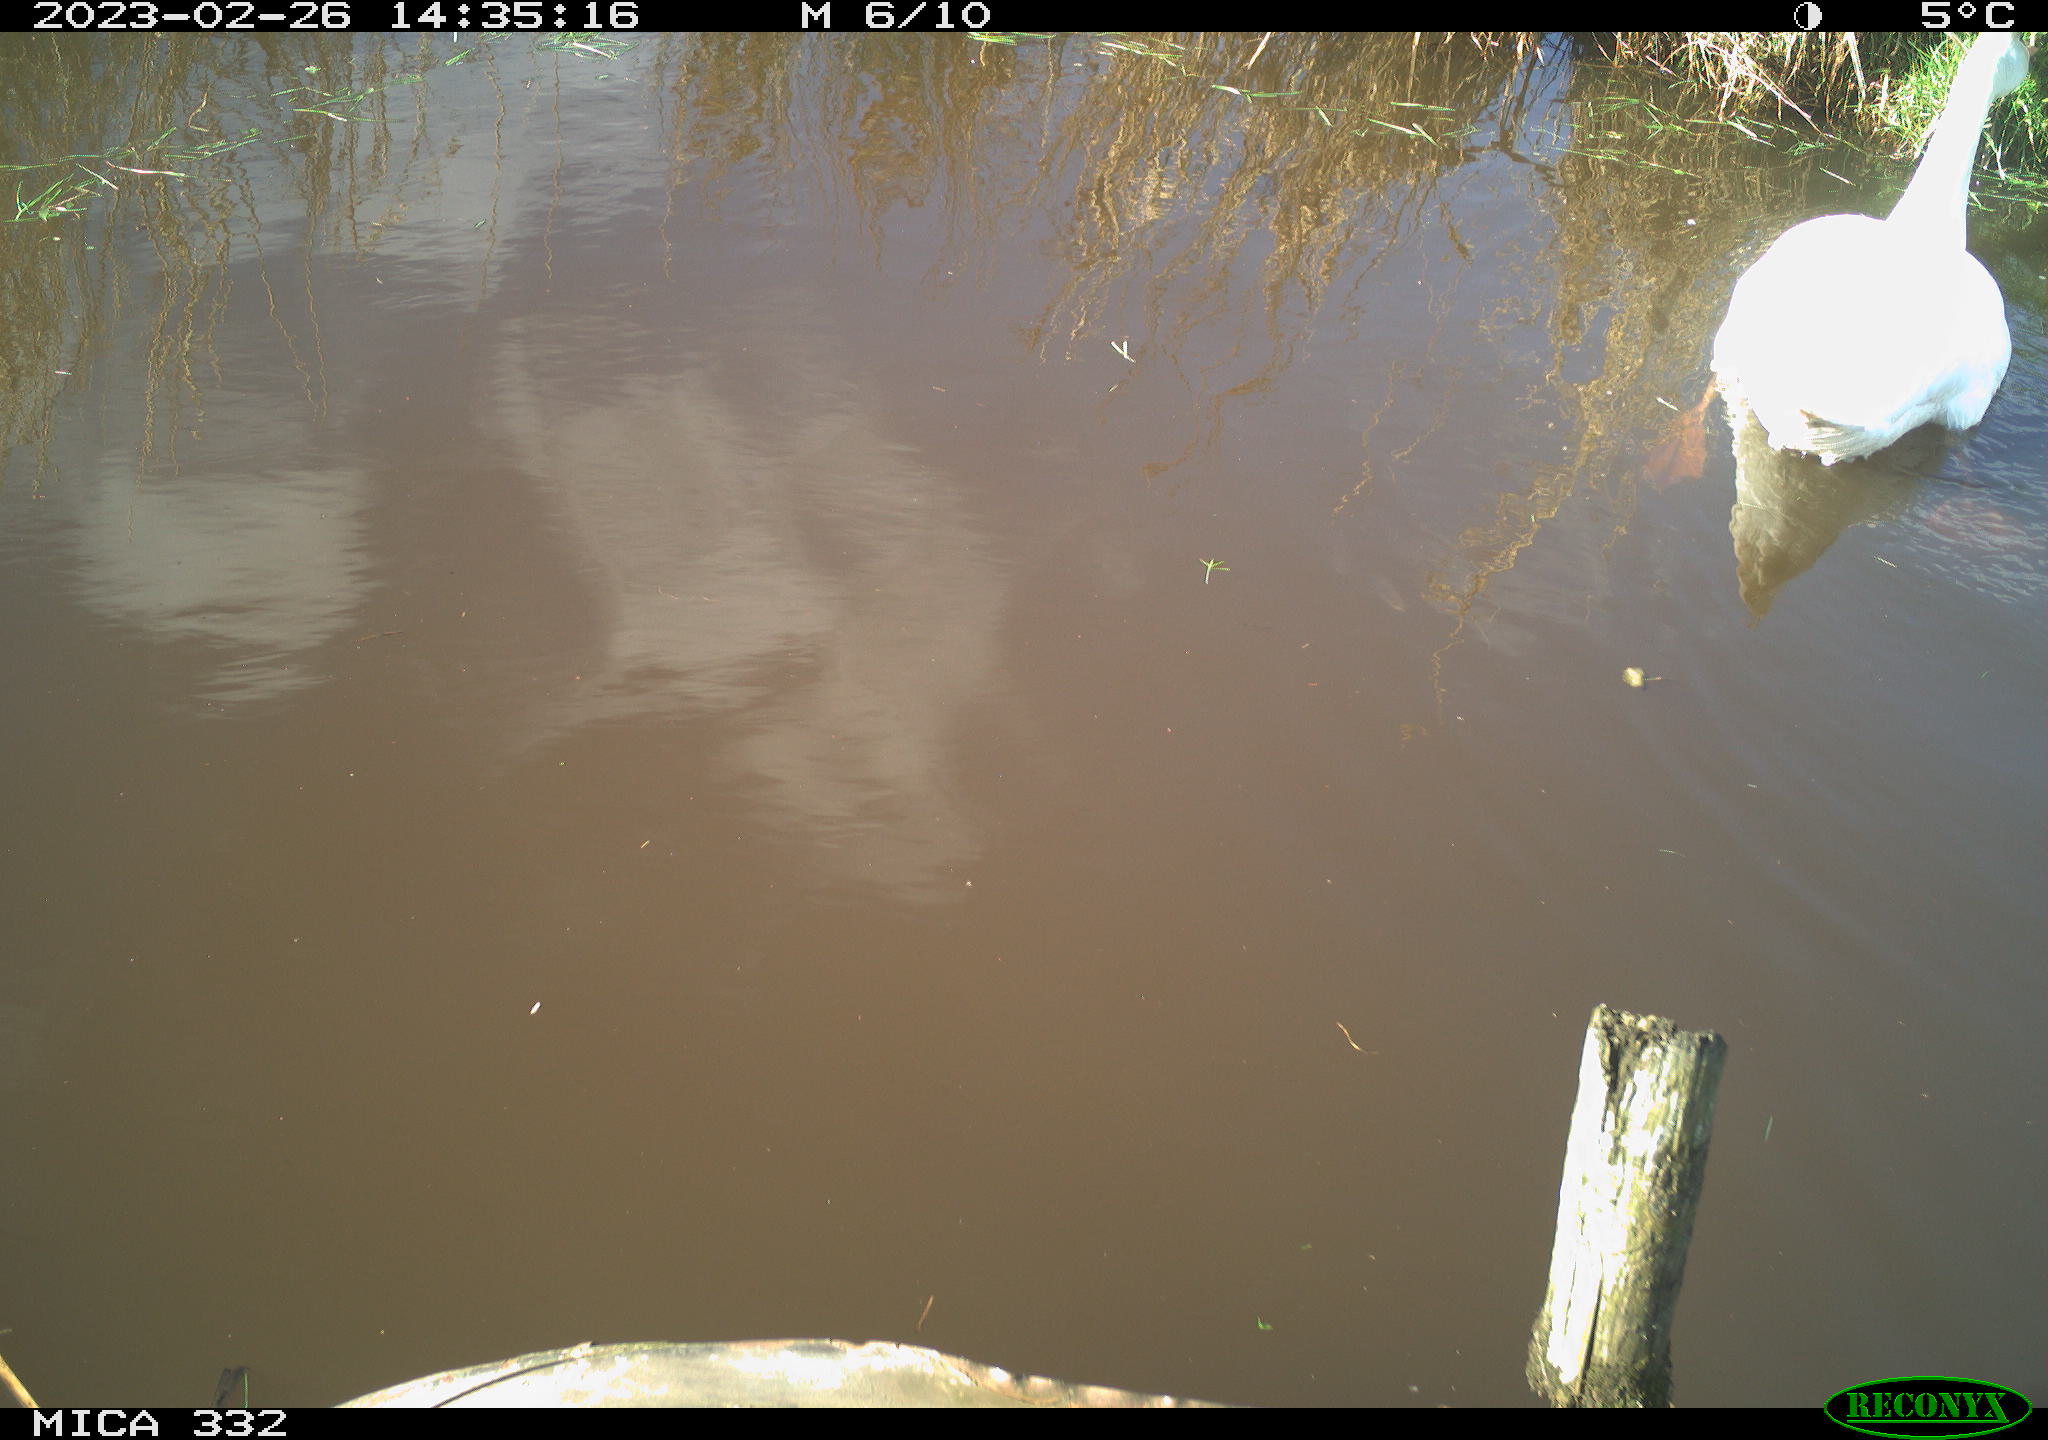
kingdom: Animalia
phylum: Chordata
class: Aves
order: Anseriformes
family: Anatidae
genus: Cygnus
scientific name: Cygnus olor
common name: Mute swan
